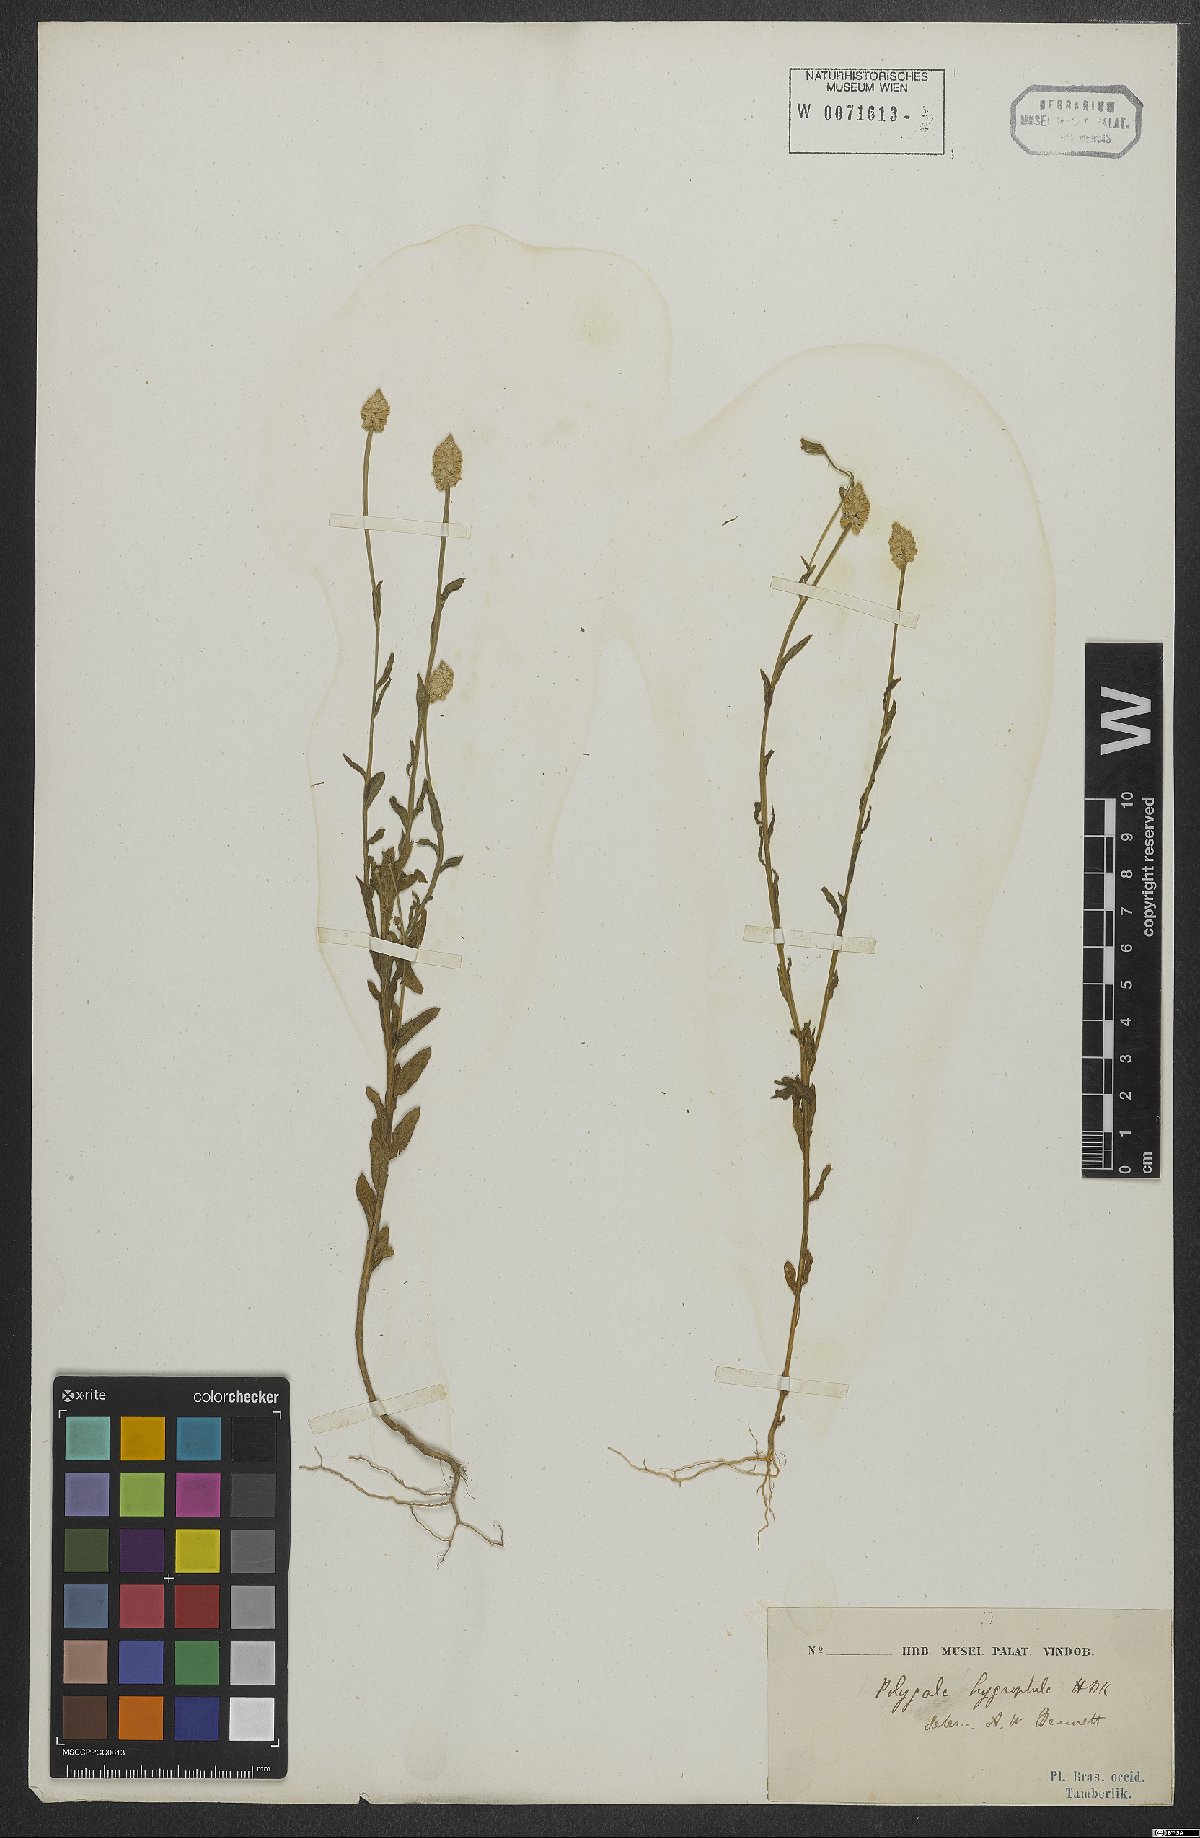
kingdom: Plantae
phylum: Tracheophyta
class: Magnoliopsida
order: Fabales
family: Polygalaceae
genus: Polygala
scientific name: Polygala hygrophila
